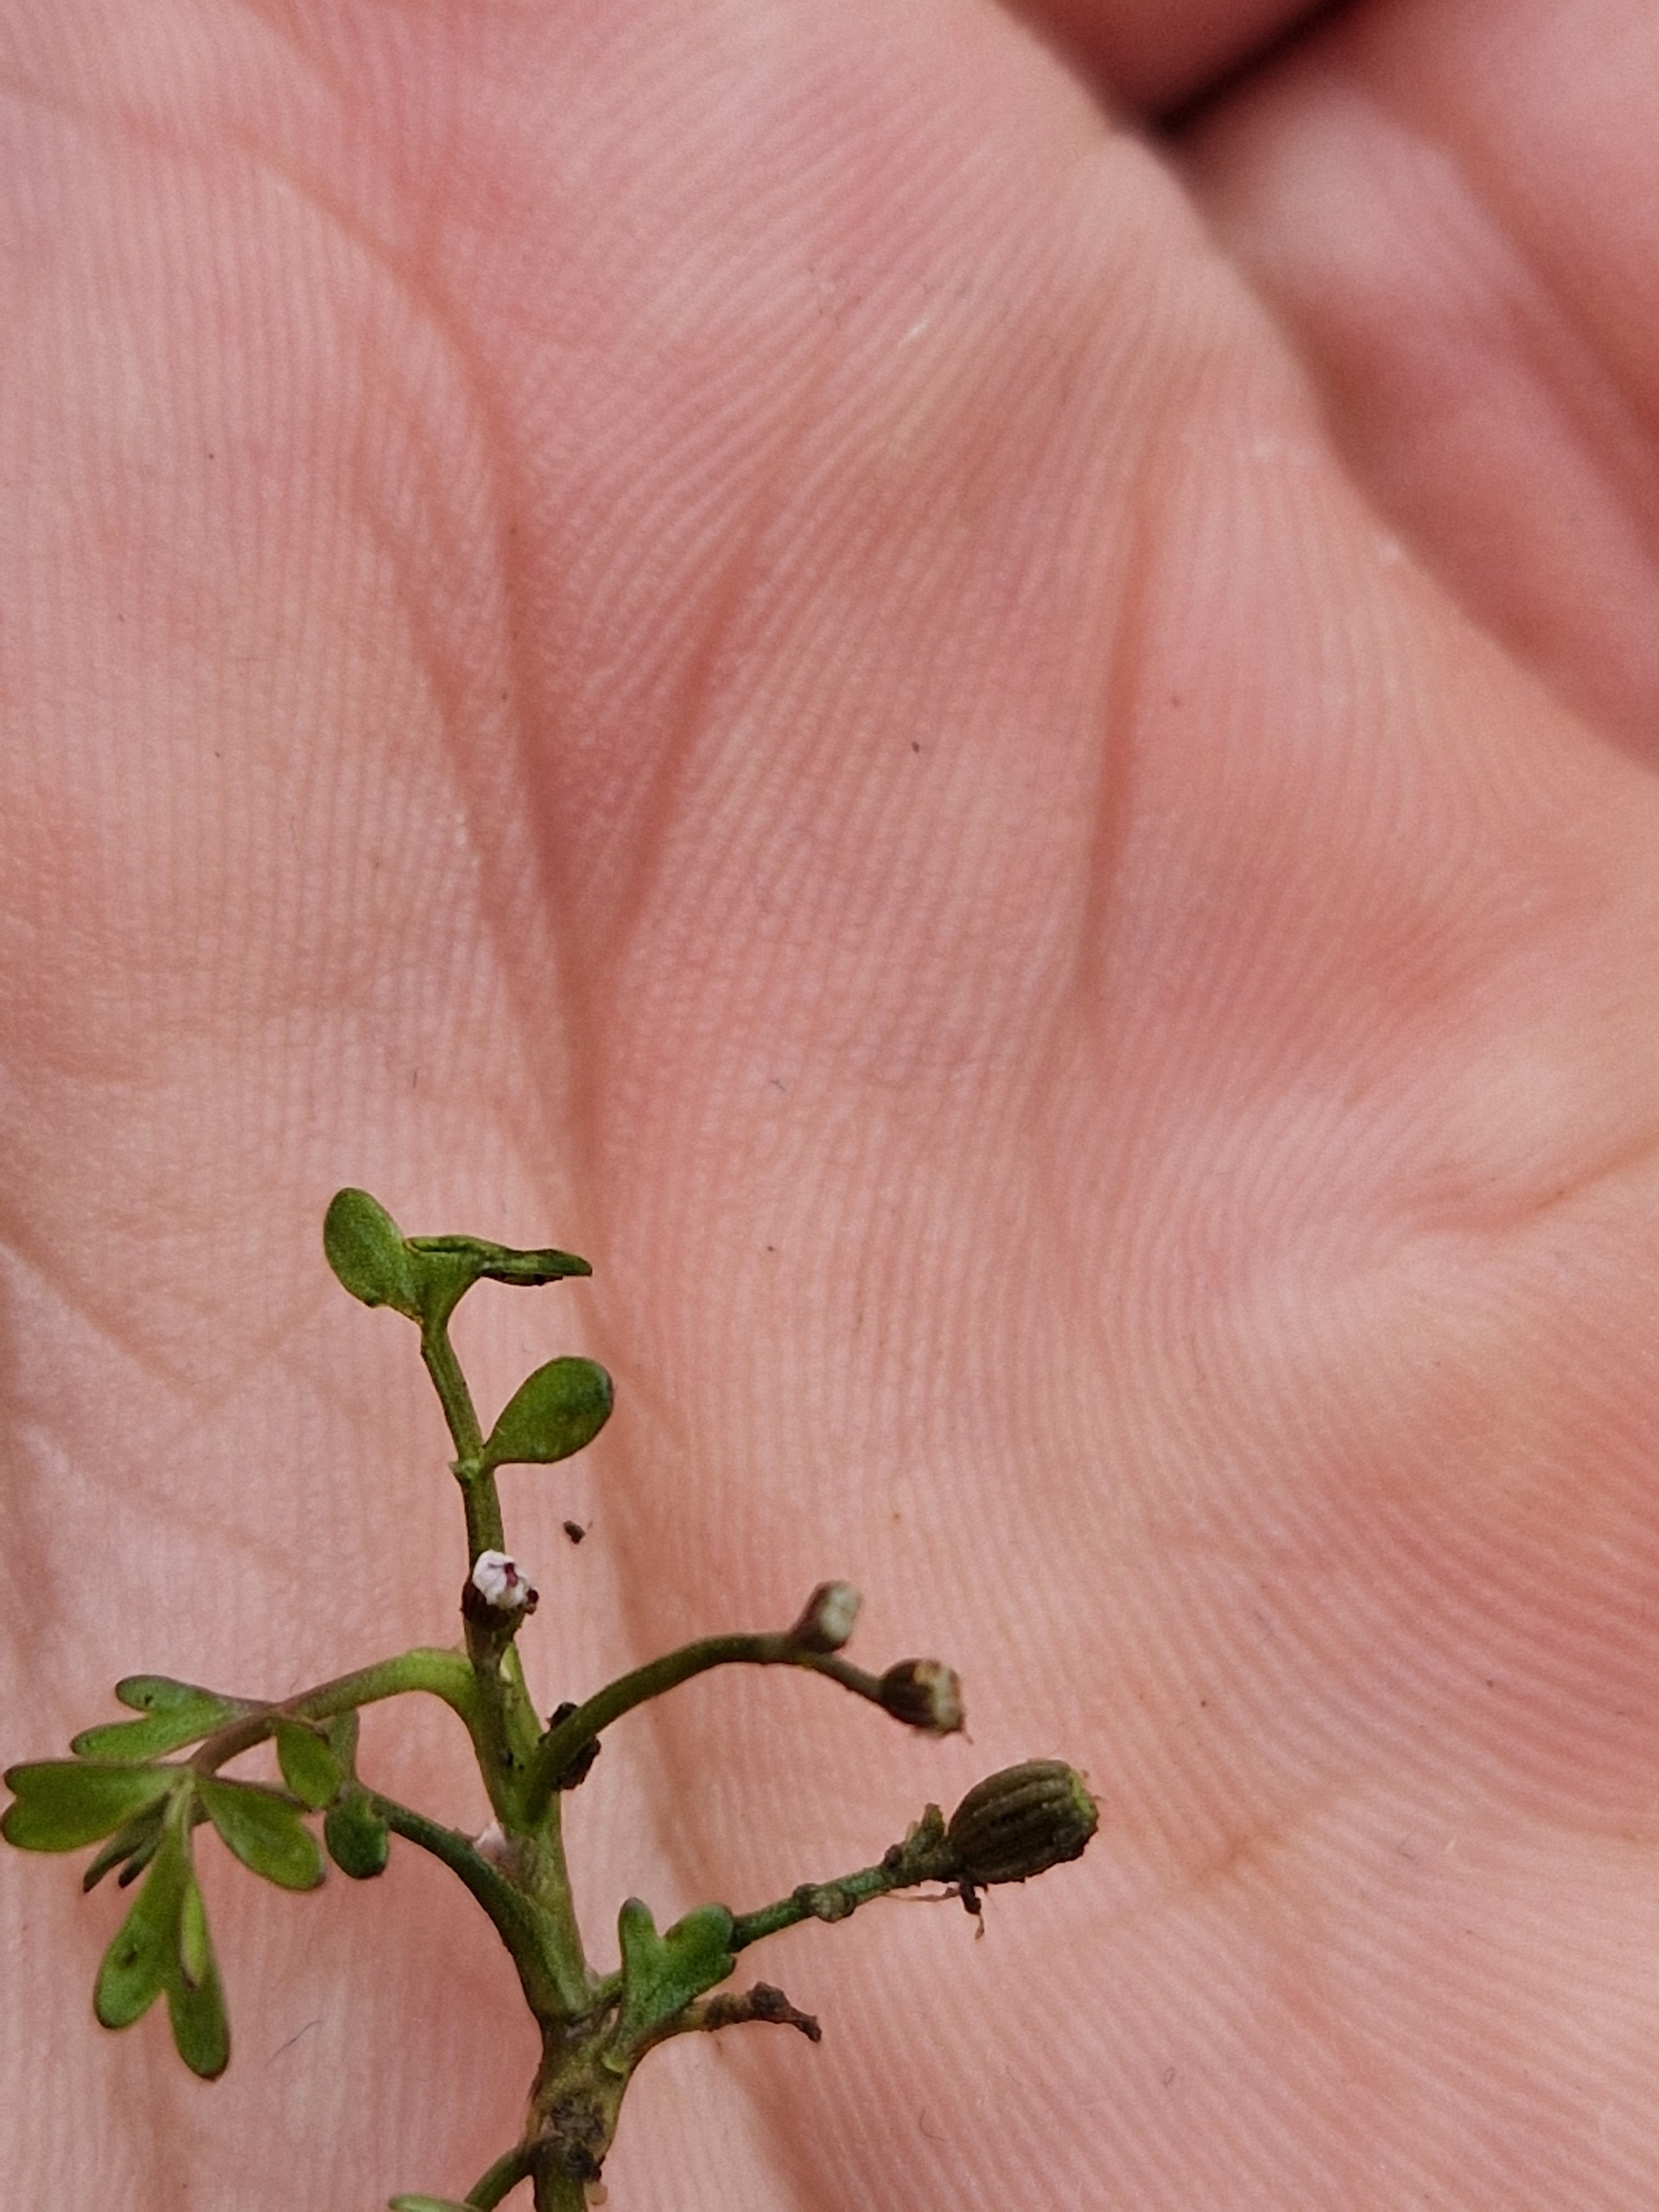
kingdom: Plantae
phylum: Tracheophyta
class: Magnoliopsida
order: Apiales
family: Apiaceae
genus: Helosciadium
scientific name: Helosciadium inundatum
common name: Svømmende sumpskærm
